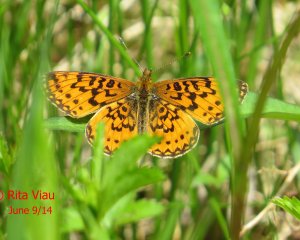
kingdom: Animalia
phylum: Arthropoda
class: Insecta
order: Lepidoptera
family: Nymphalidae
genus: Boloria
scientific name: Boloria selene
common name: Silver-bordered Fritillary
